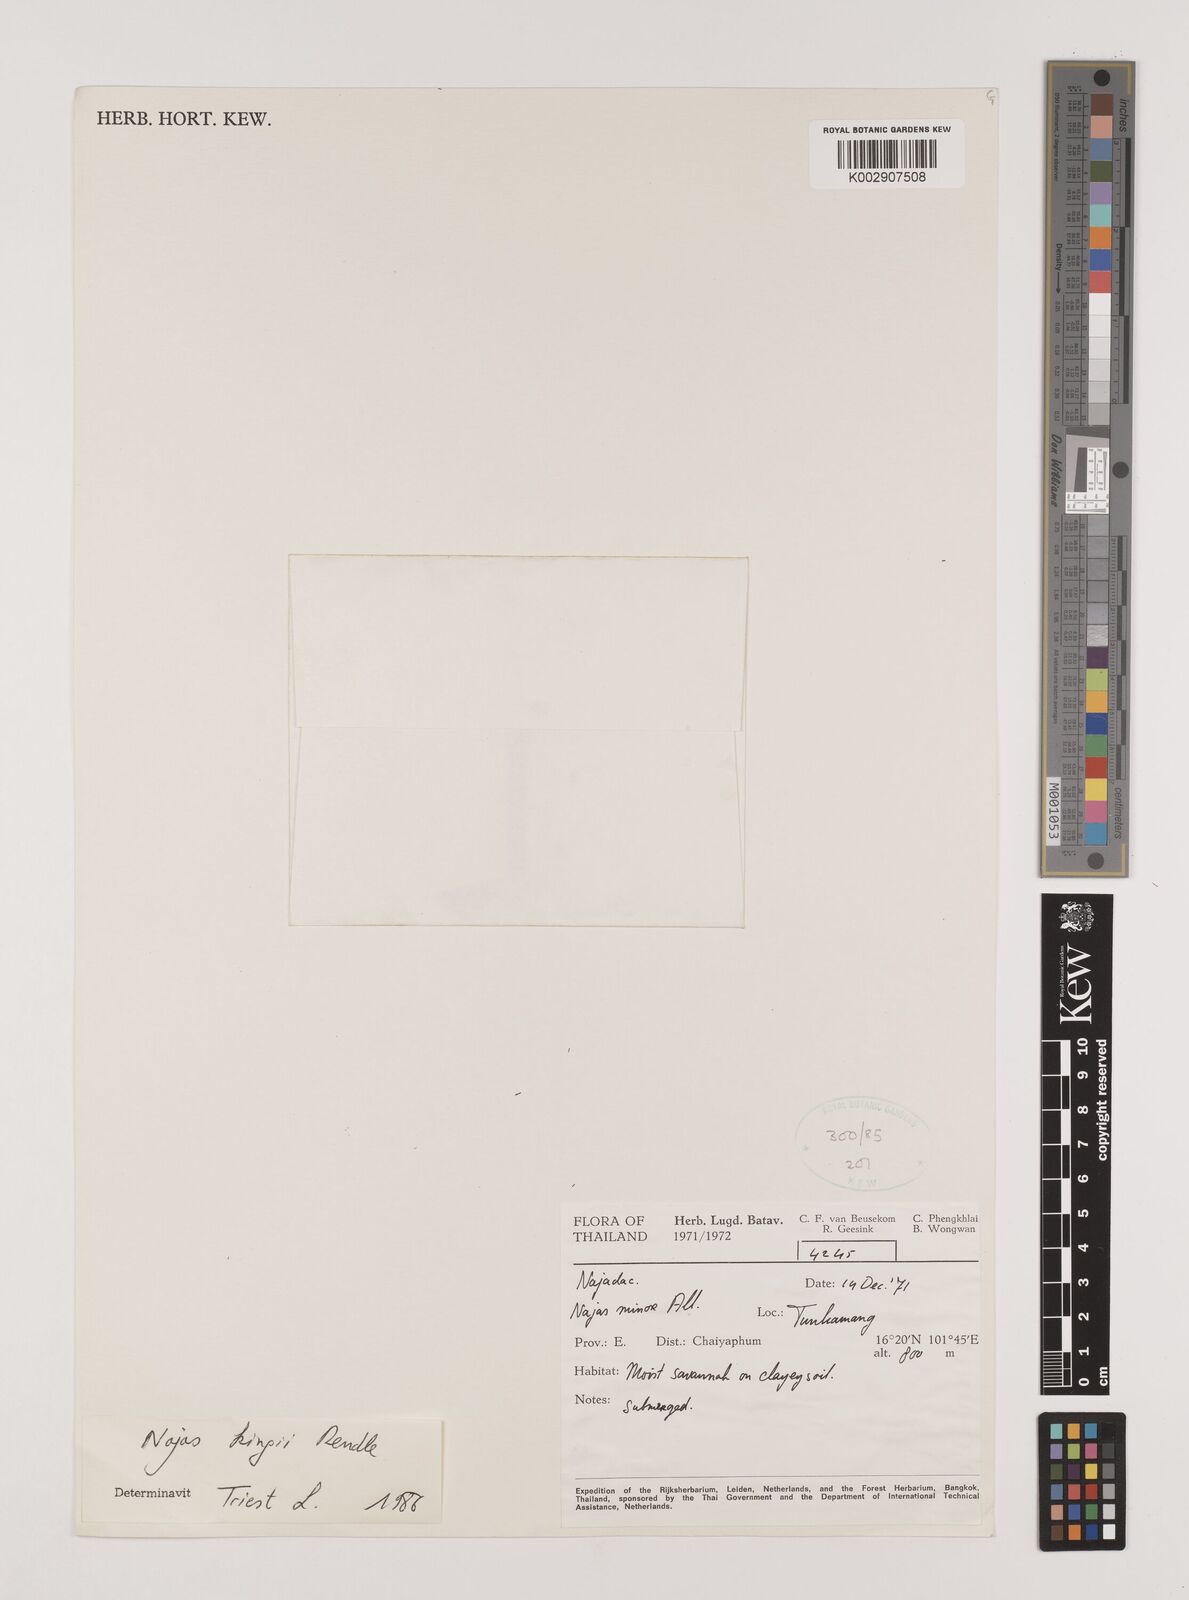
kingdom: Plantae
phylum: Tracheophyta
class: Liliopsida
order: Alismatales
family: Hydrocharitaceae
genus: Najas
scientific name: Najas indica
